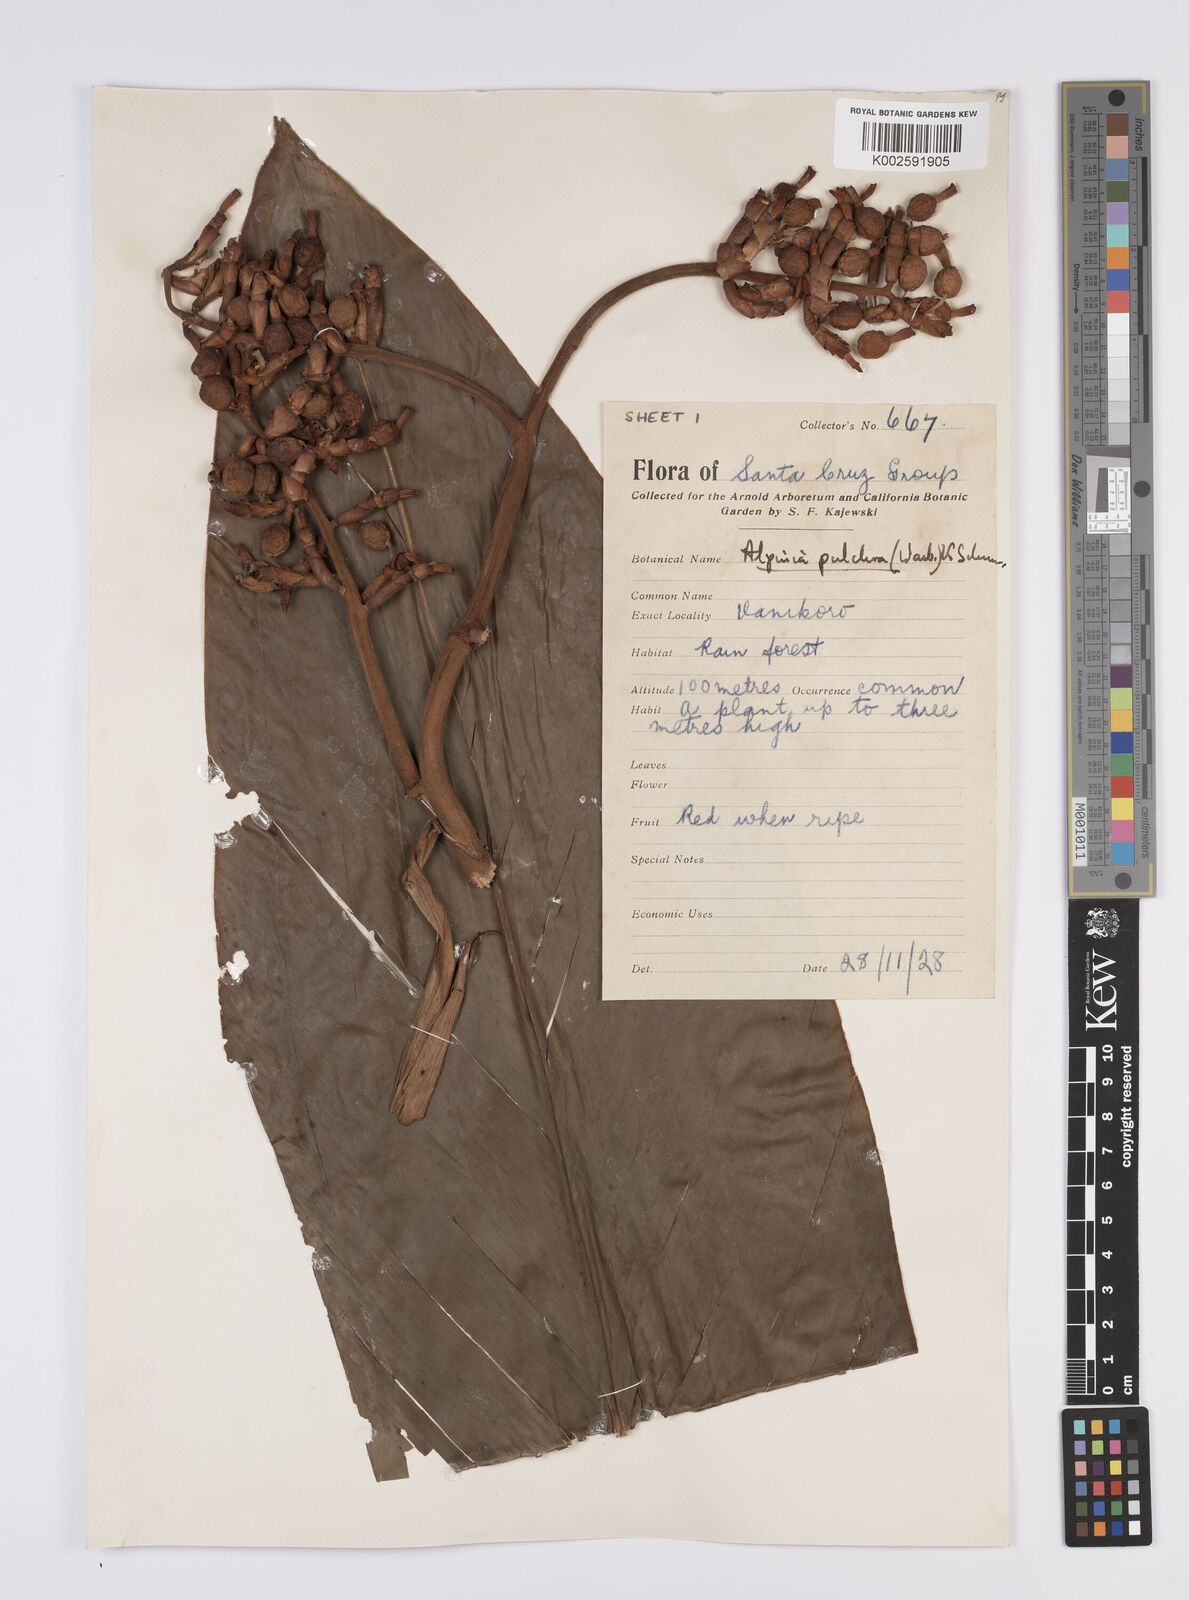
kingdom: Plantae
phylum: Tracheophyta
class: Liliopsida
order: Zingiberales
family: Zingiberaceae
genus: Alpinia
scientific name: Alpinia pulchra
